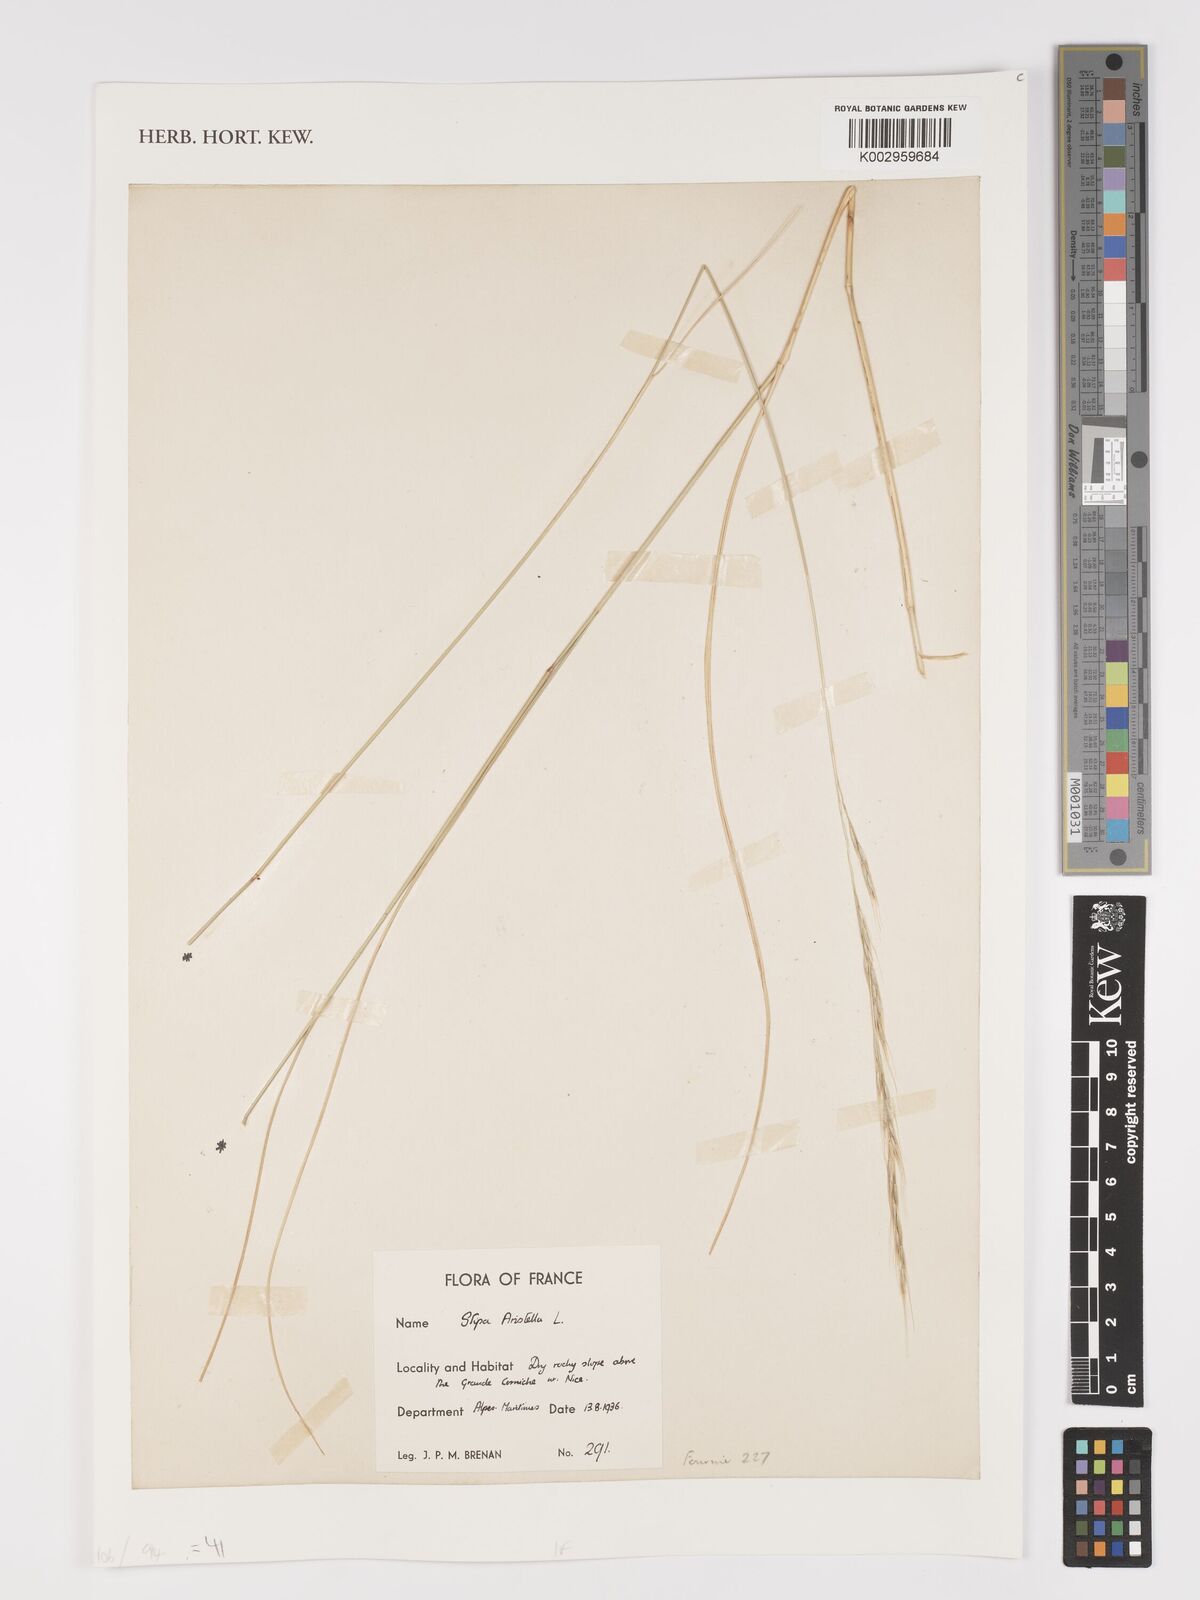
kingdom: Plantae
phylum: Tracheophyta
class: Liliopsida
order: Poales
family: Poaceae
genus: Achnatherum
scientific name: Achnatherum bromoides
